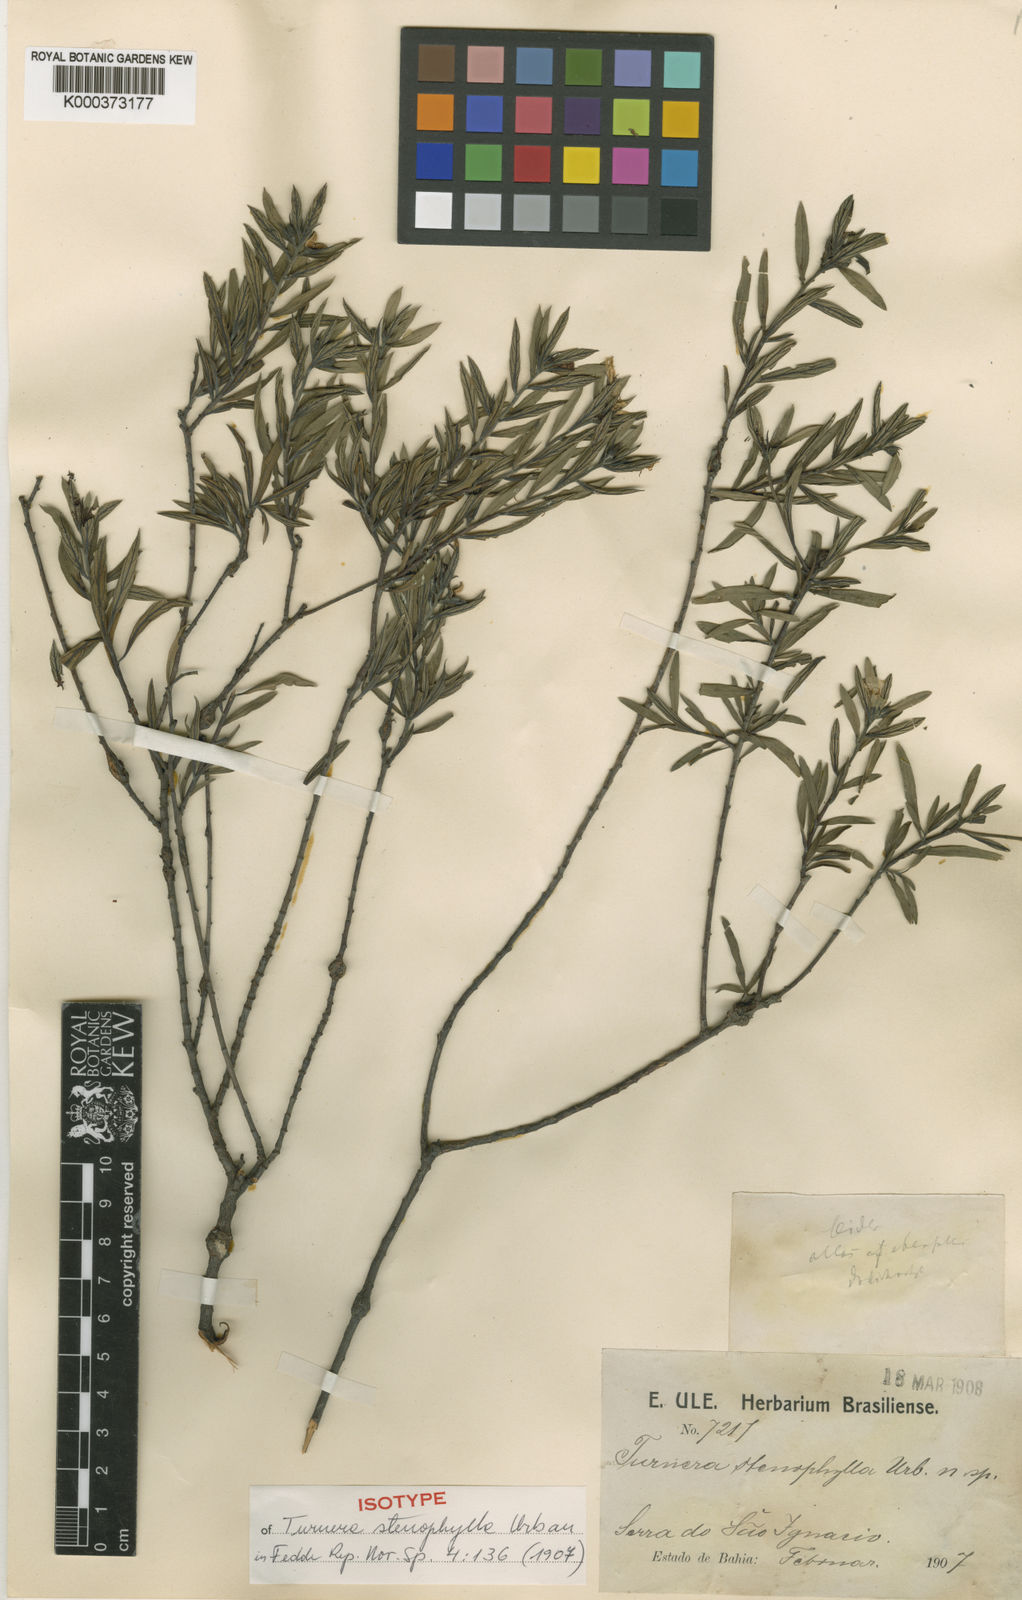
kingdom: Plantae
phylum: Tracheophyta
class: Magnoliopsida
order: Malpighiales
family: Turneraceae
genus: Turnera
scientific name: Turnera stenophylla
